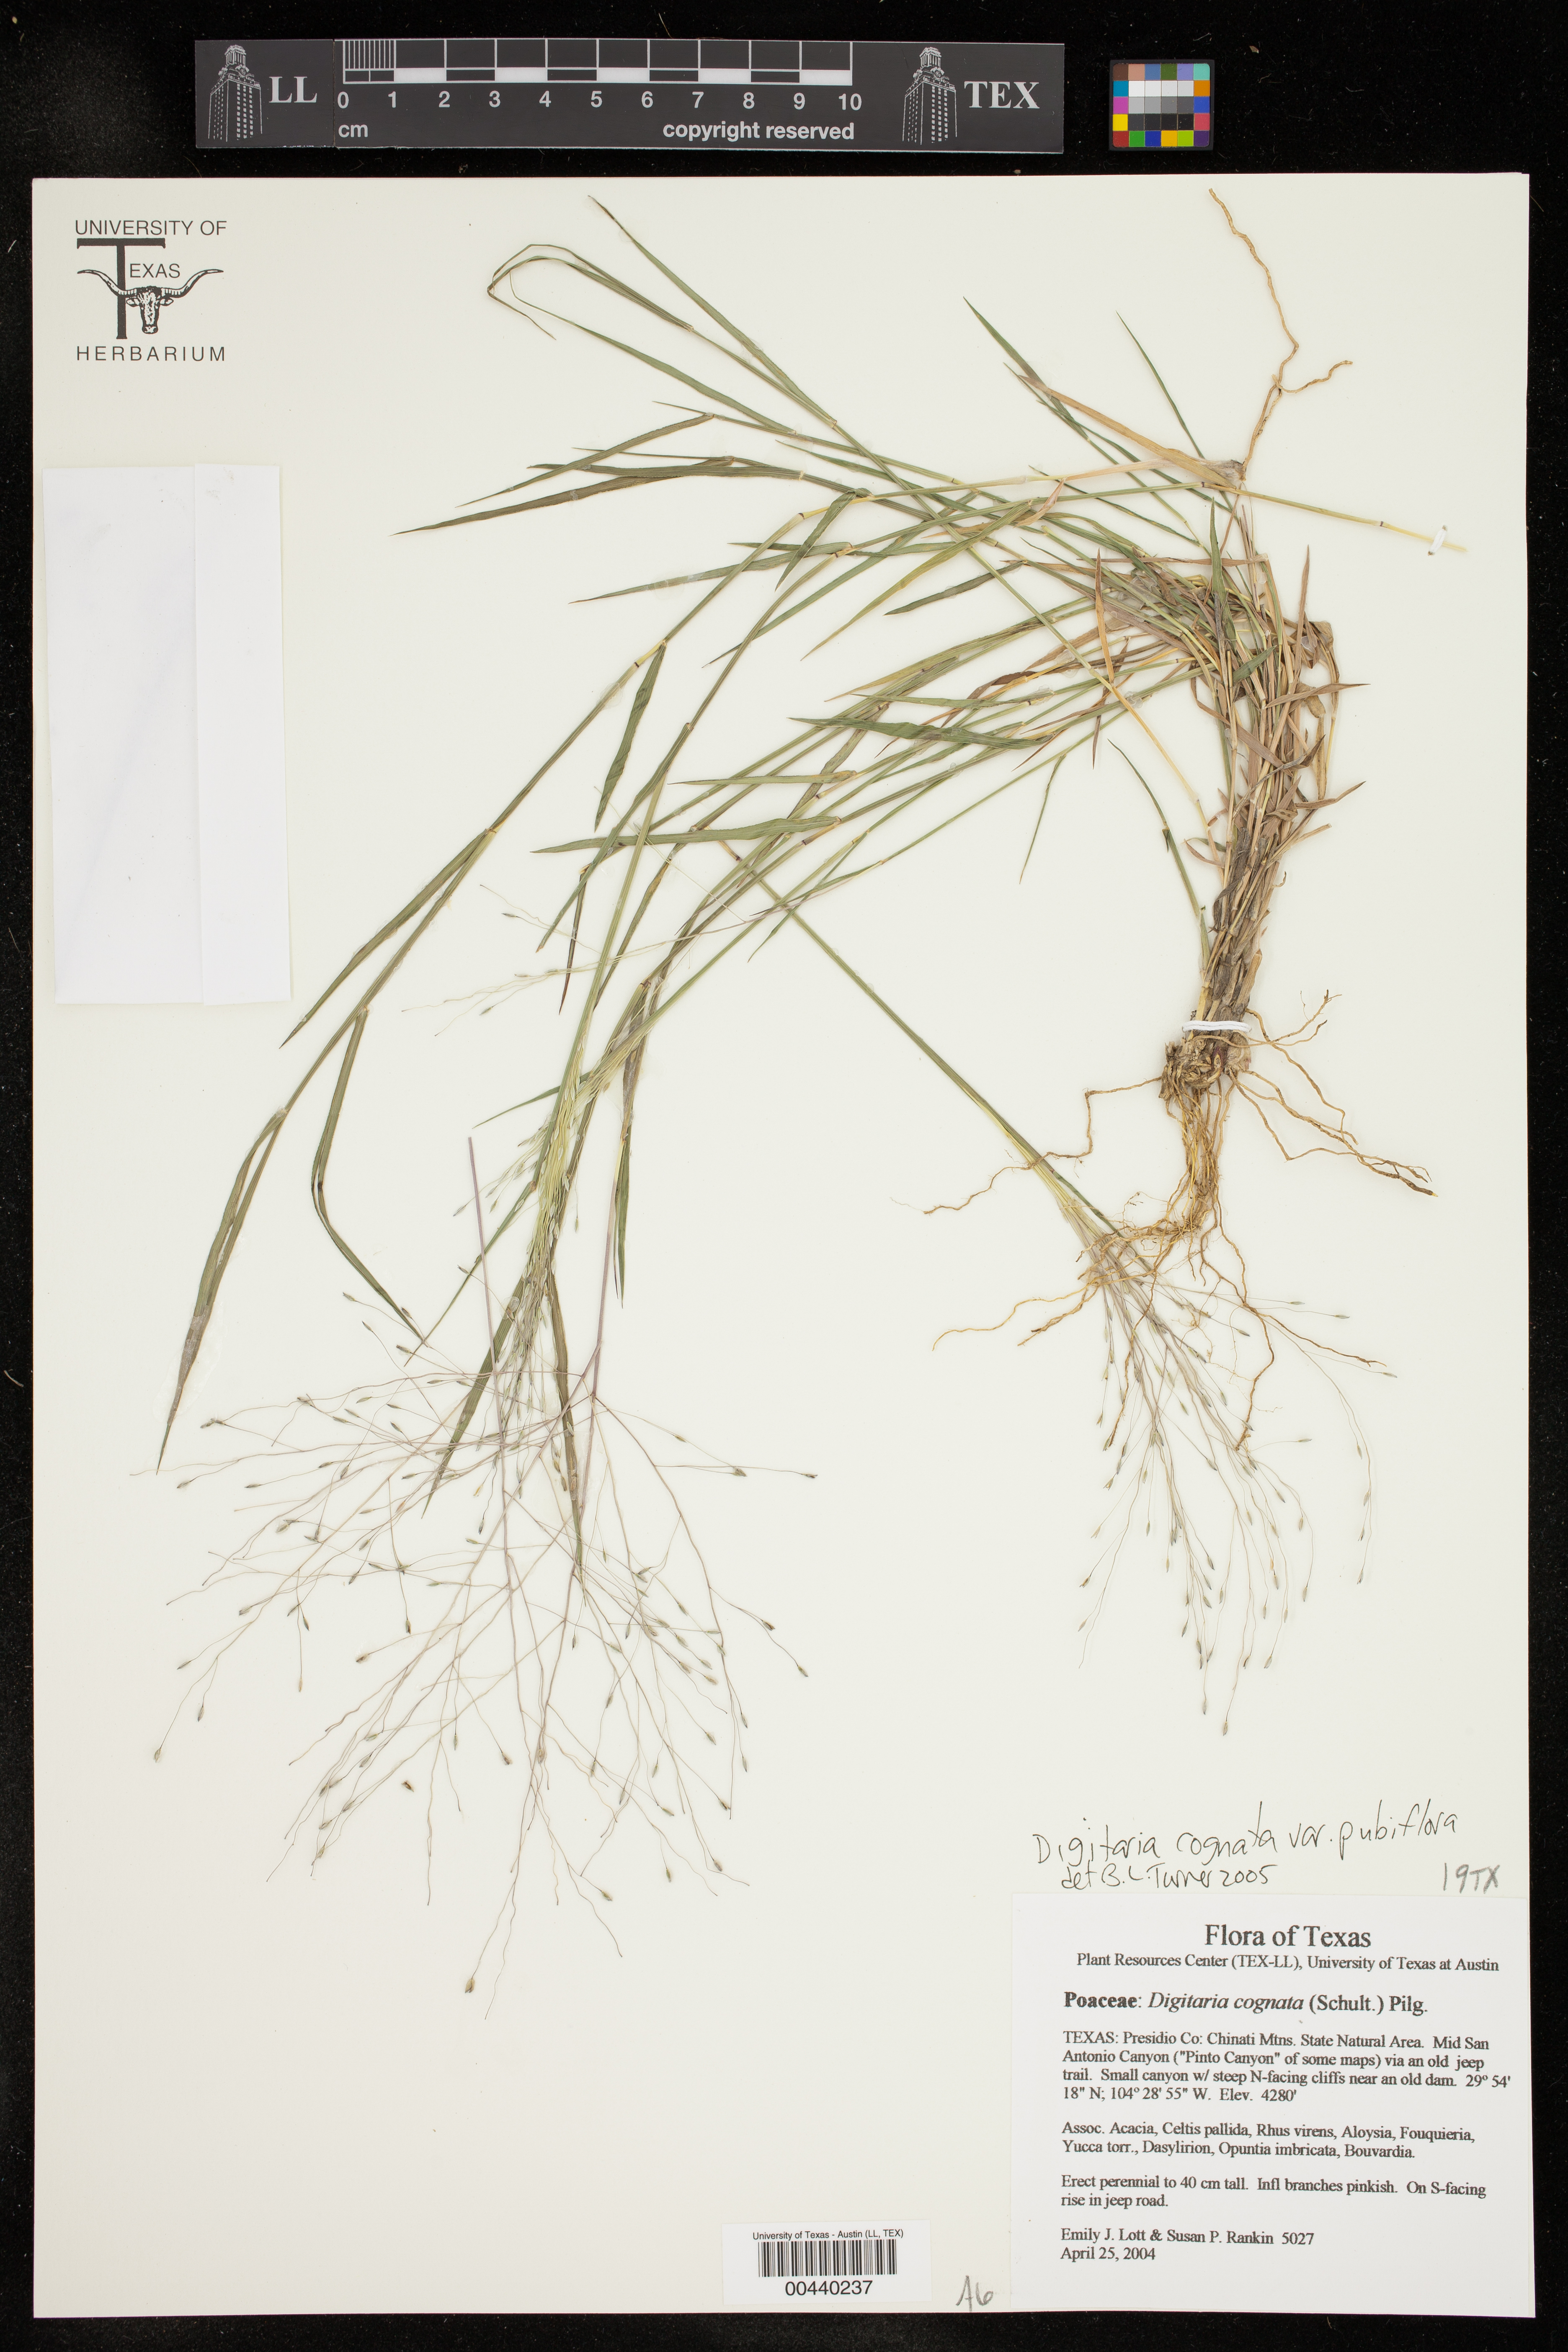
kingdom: Plantae
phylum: Tracheophyta
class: Liliopsida
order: Poales
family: Poaceae
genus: Digitaria
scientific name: Digitaria cognata
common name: Fall witchgrass
